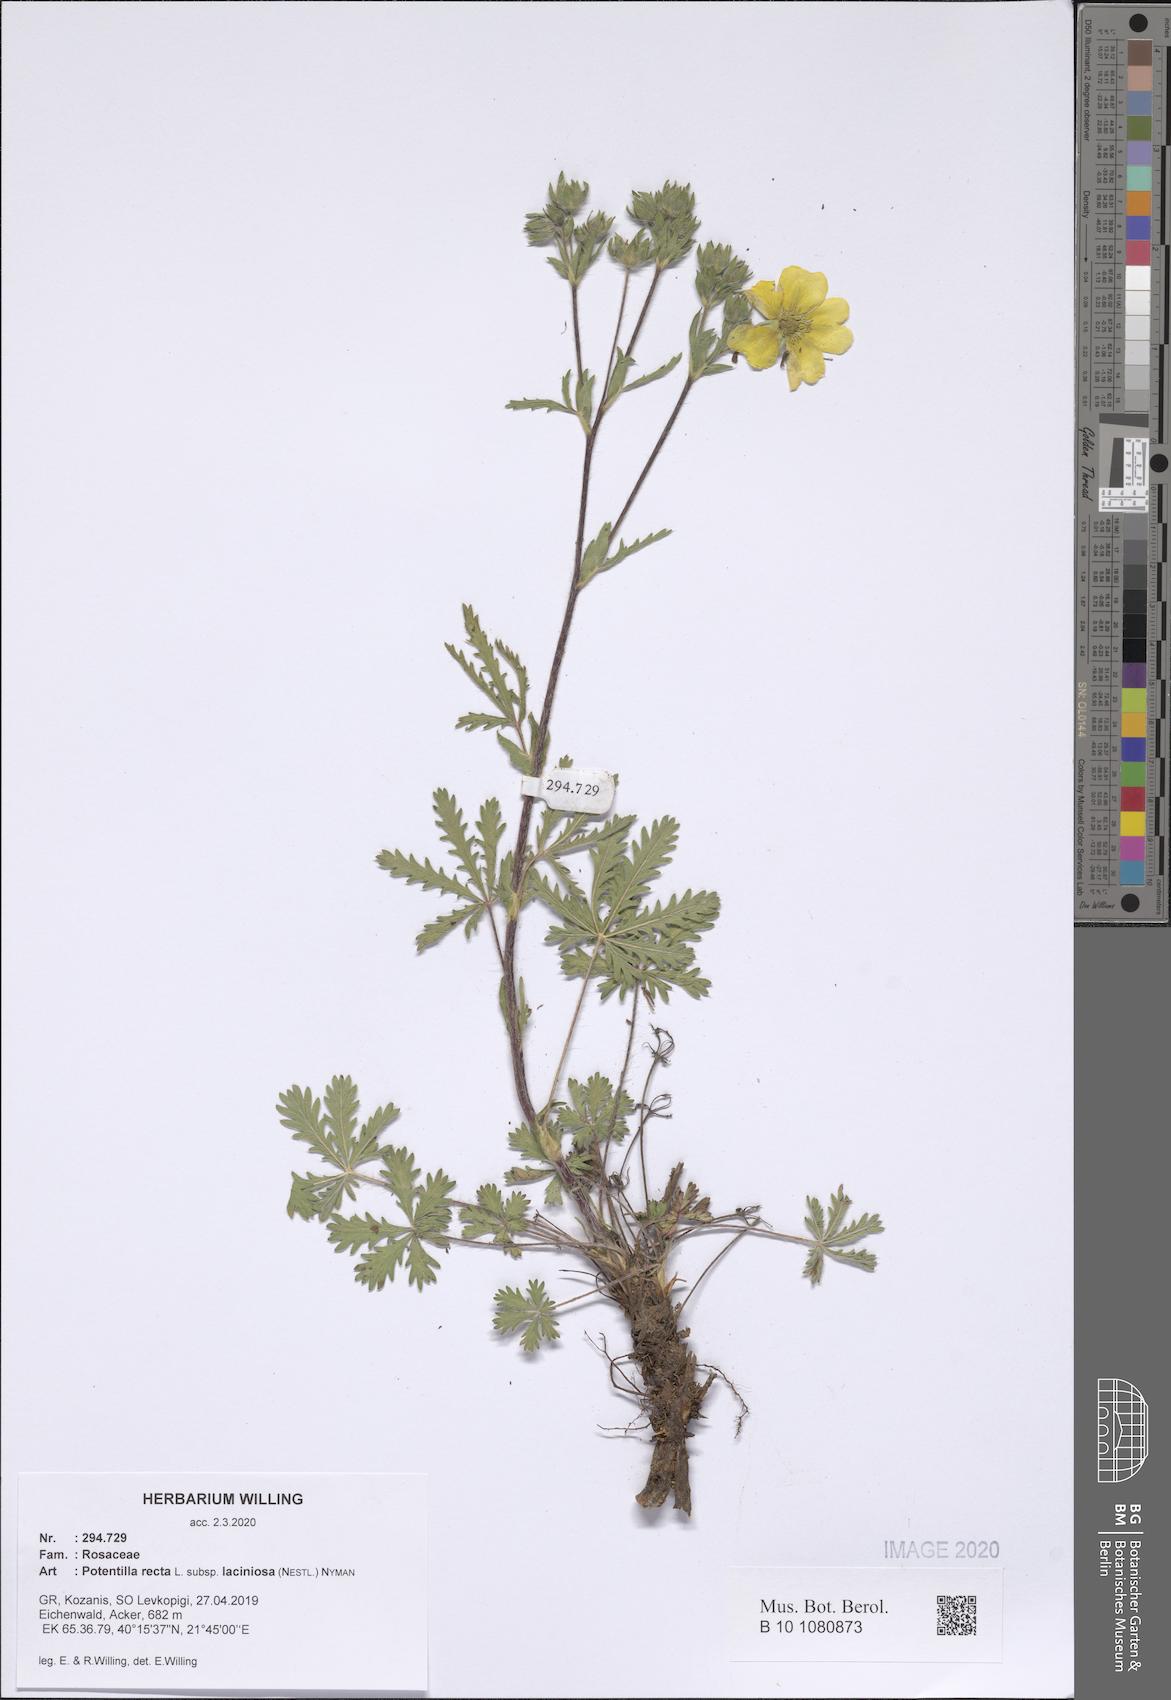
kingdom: Plantae
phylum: Tracheophyta
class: Magnoliopsida
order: Rosales
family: Rosaceae
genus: Potentilla
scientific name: Potentilla recta
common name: Sulphur cinquefoil
